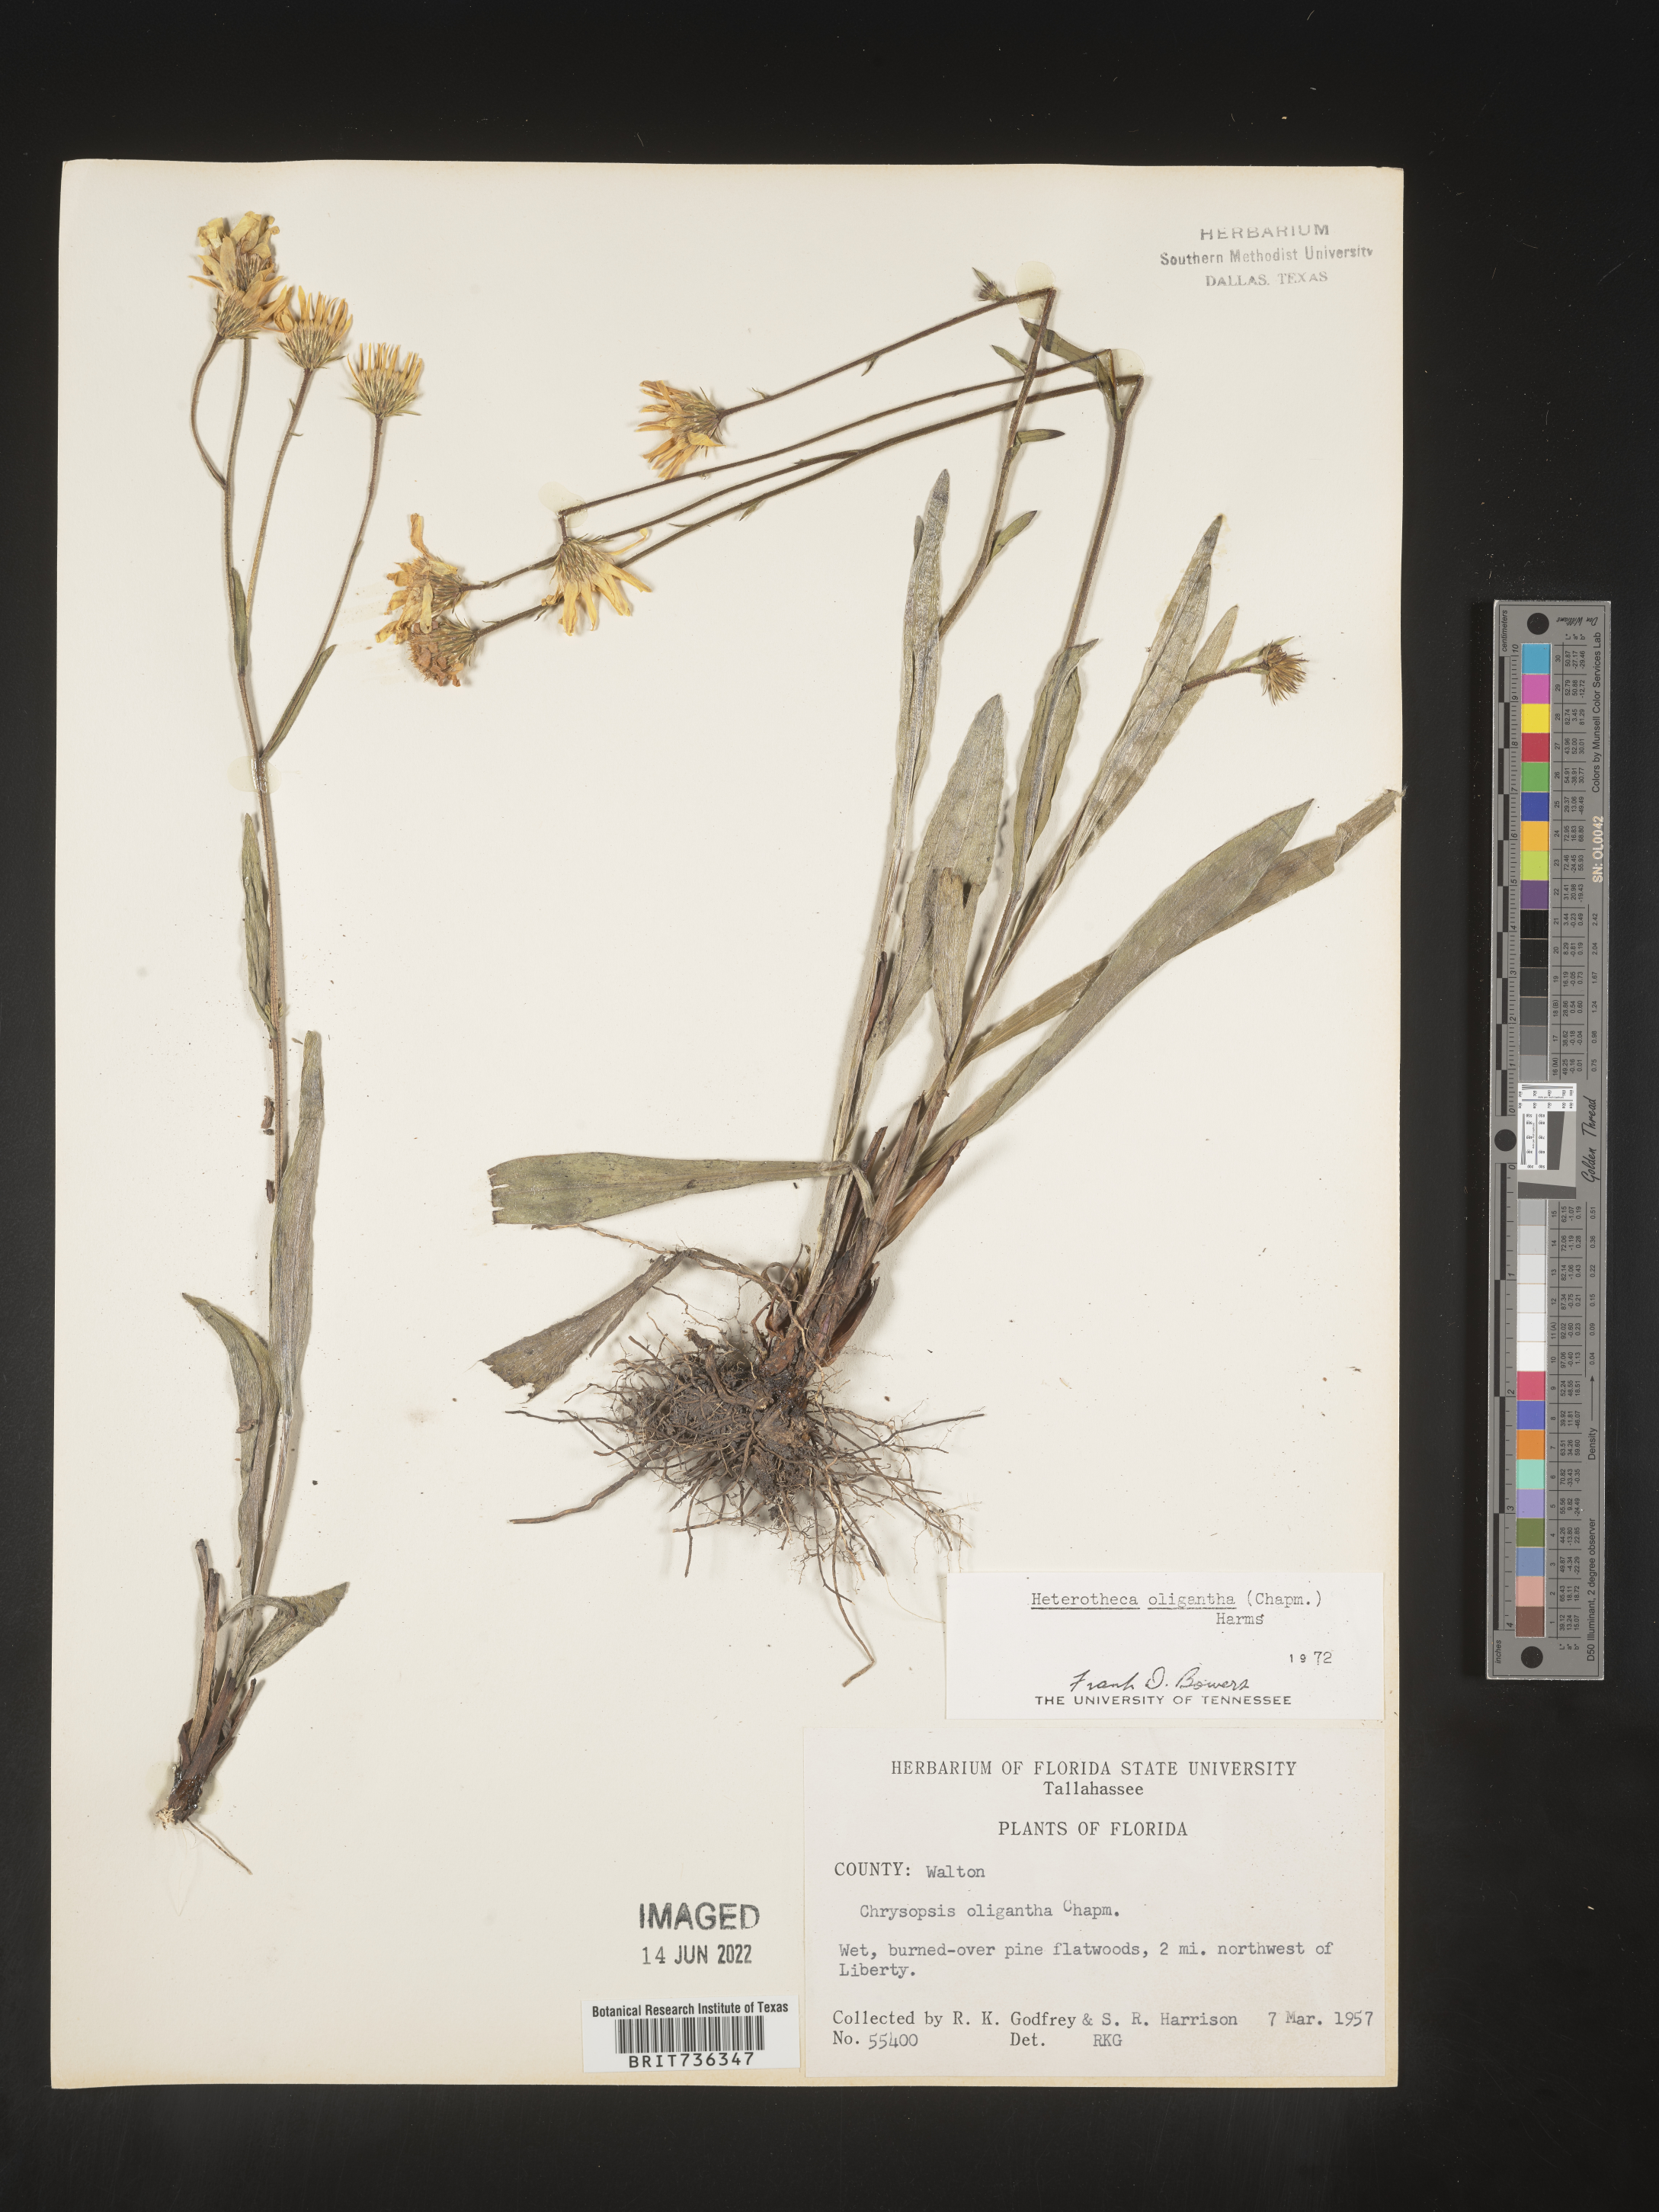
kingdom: Plantae
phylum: Tracheophyta
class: Magnoliopsida
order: Asterales
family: Asteraceae
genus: Pityopsis
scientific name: Pityopsis oligantha
